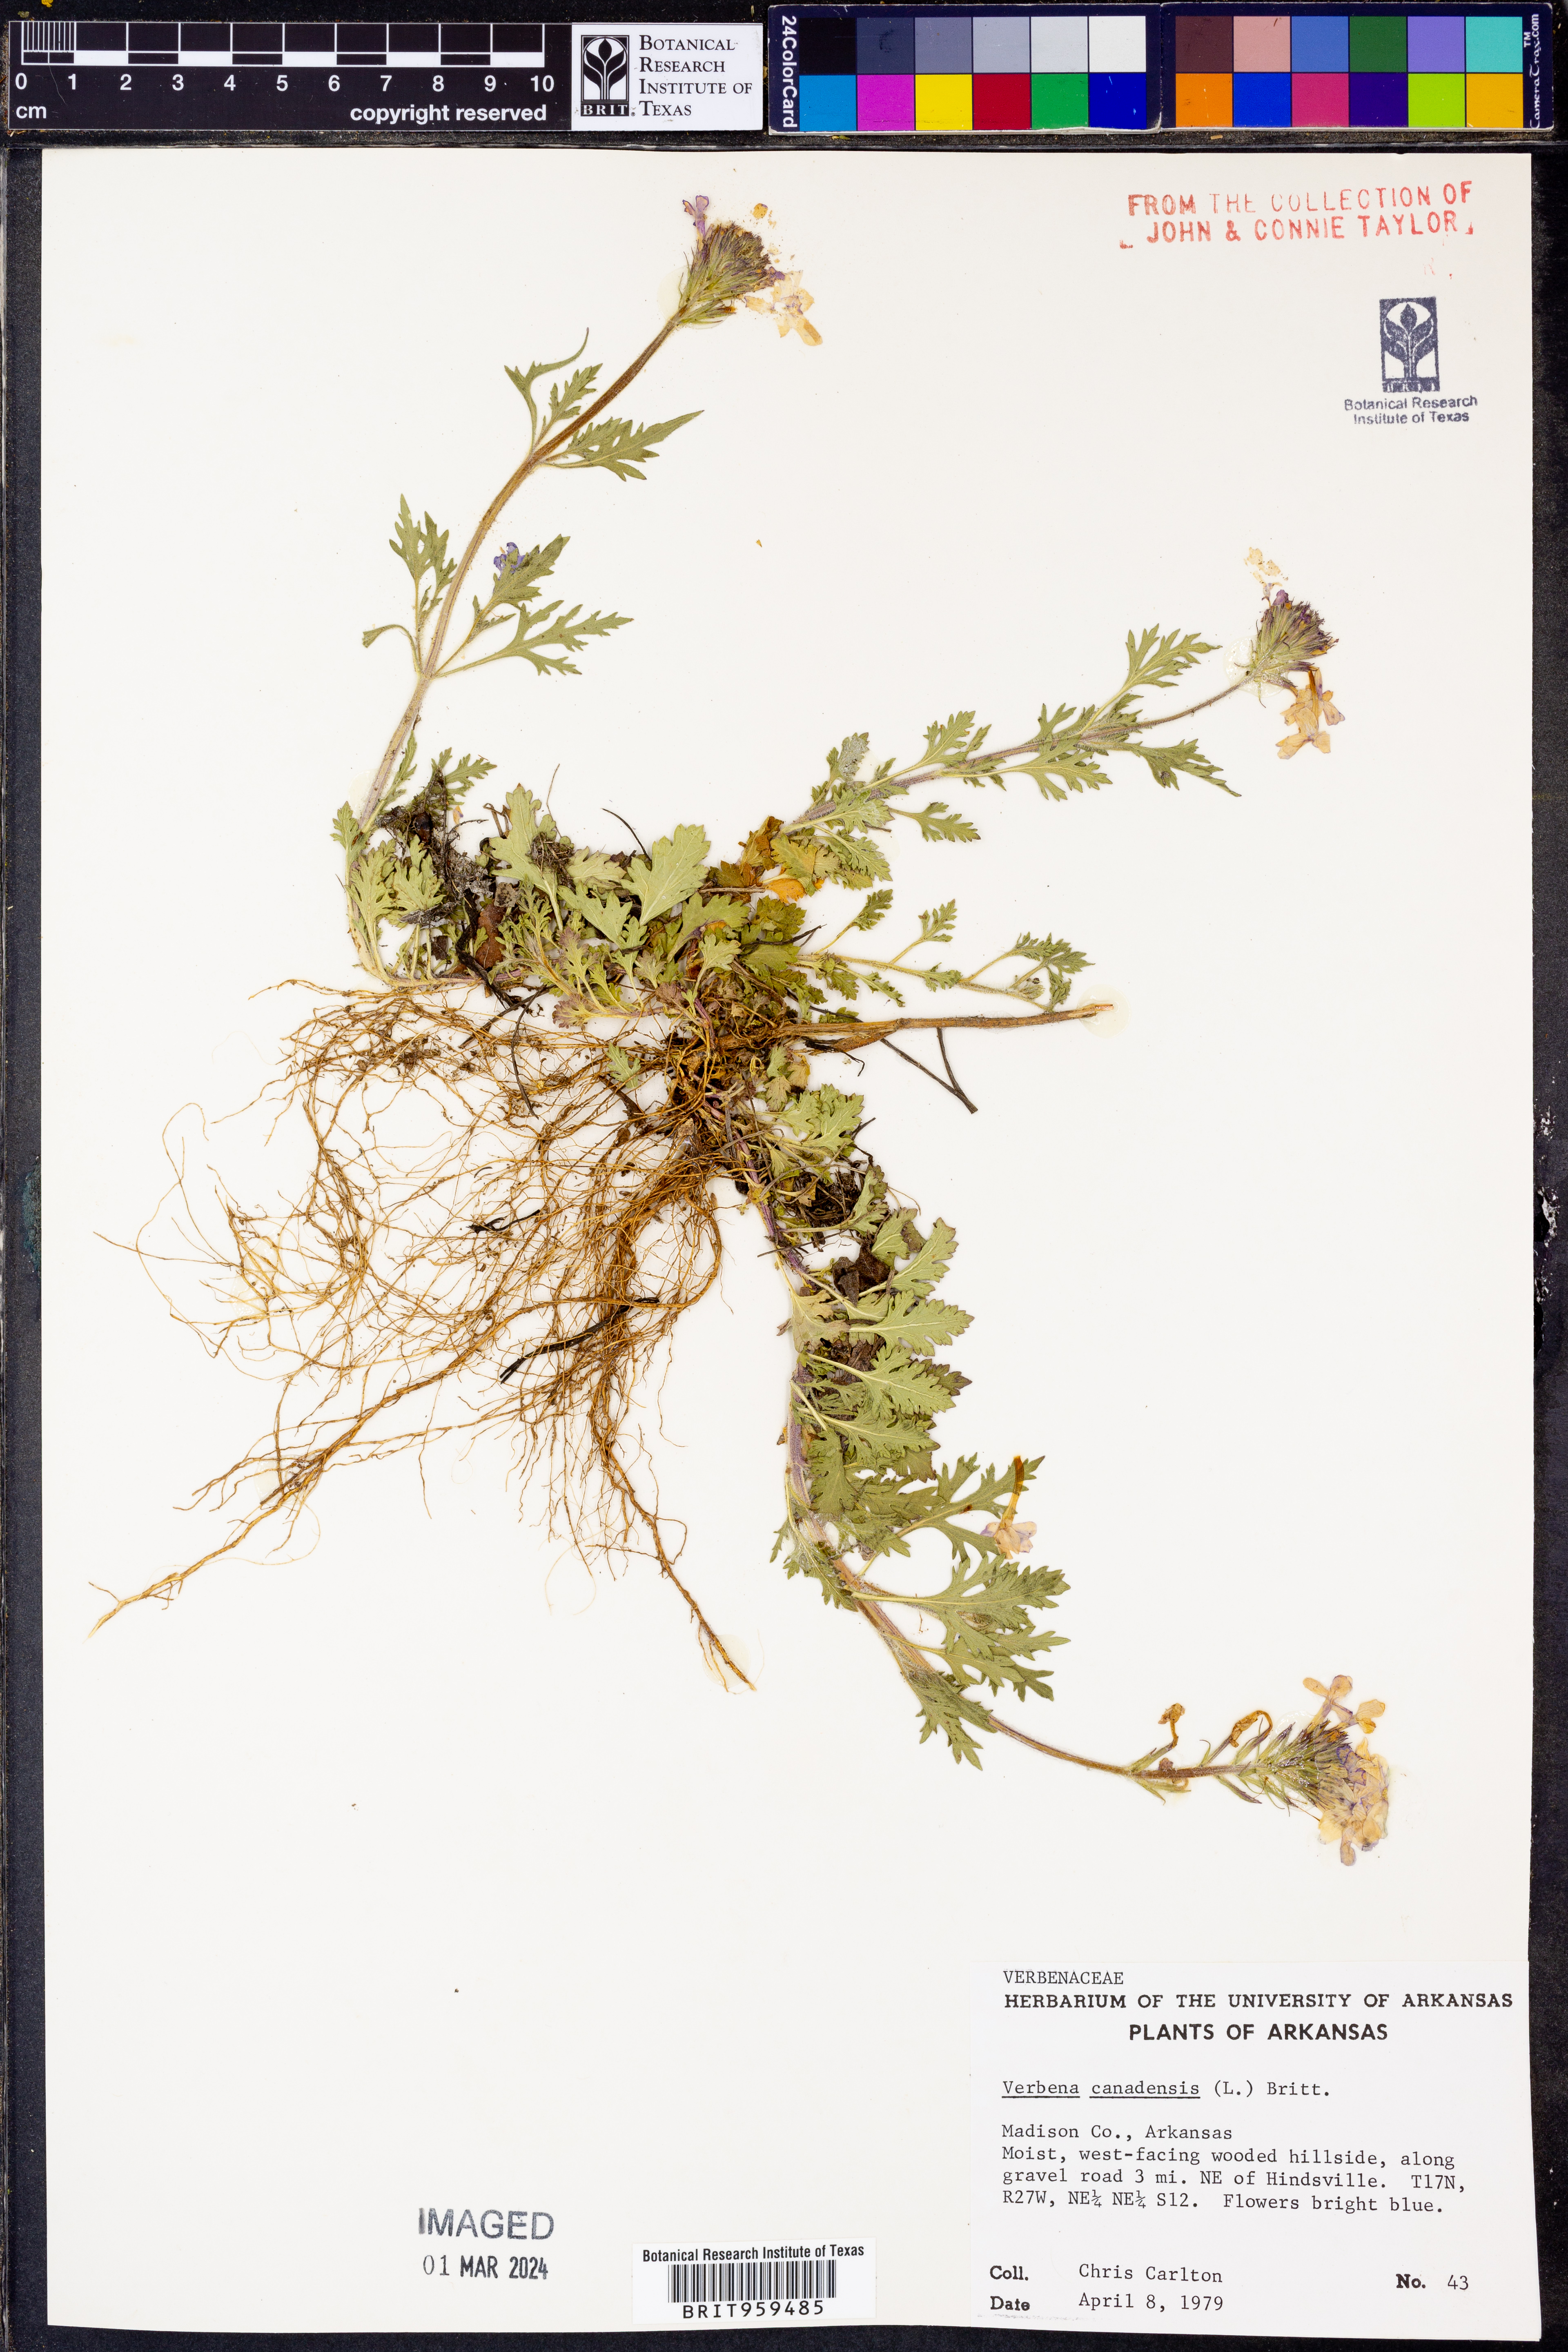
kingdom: Plantae
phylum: Tracheophyta
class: Magnoliopsida
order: Lamiales
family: Verbenaceae
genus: Verbena
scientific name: Verbena canadensis
